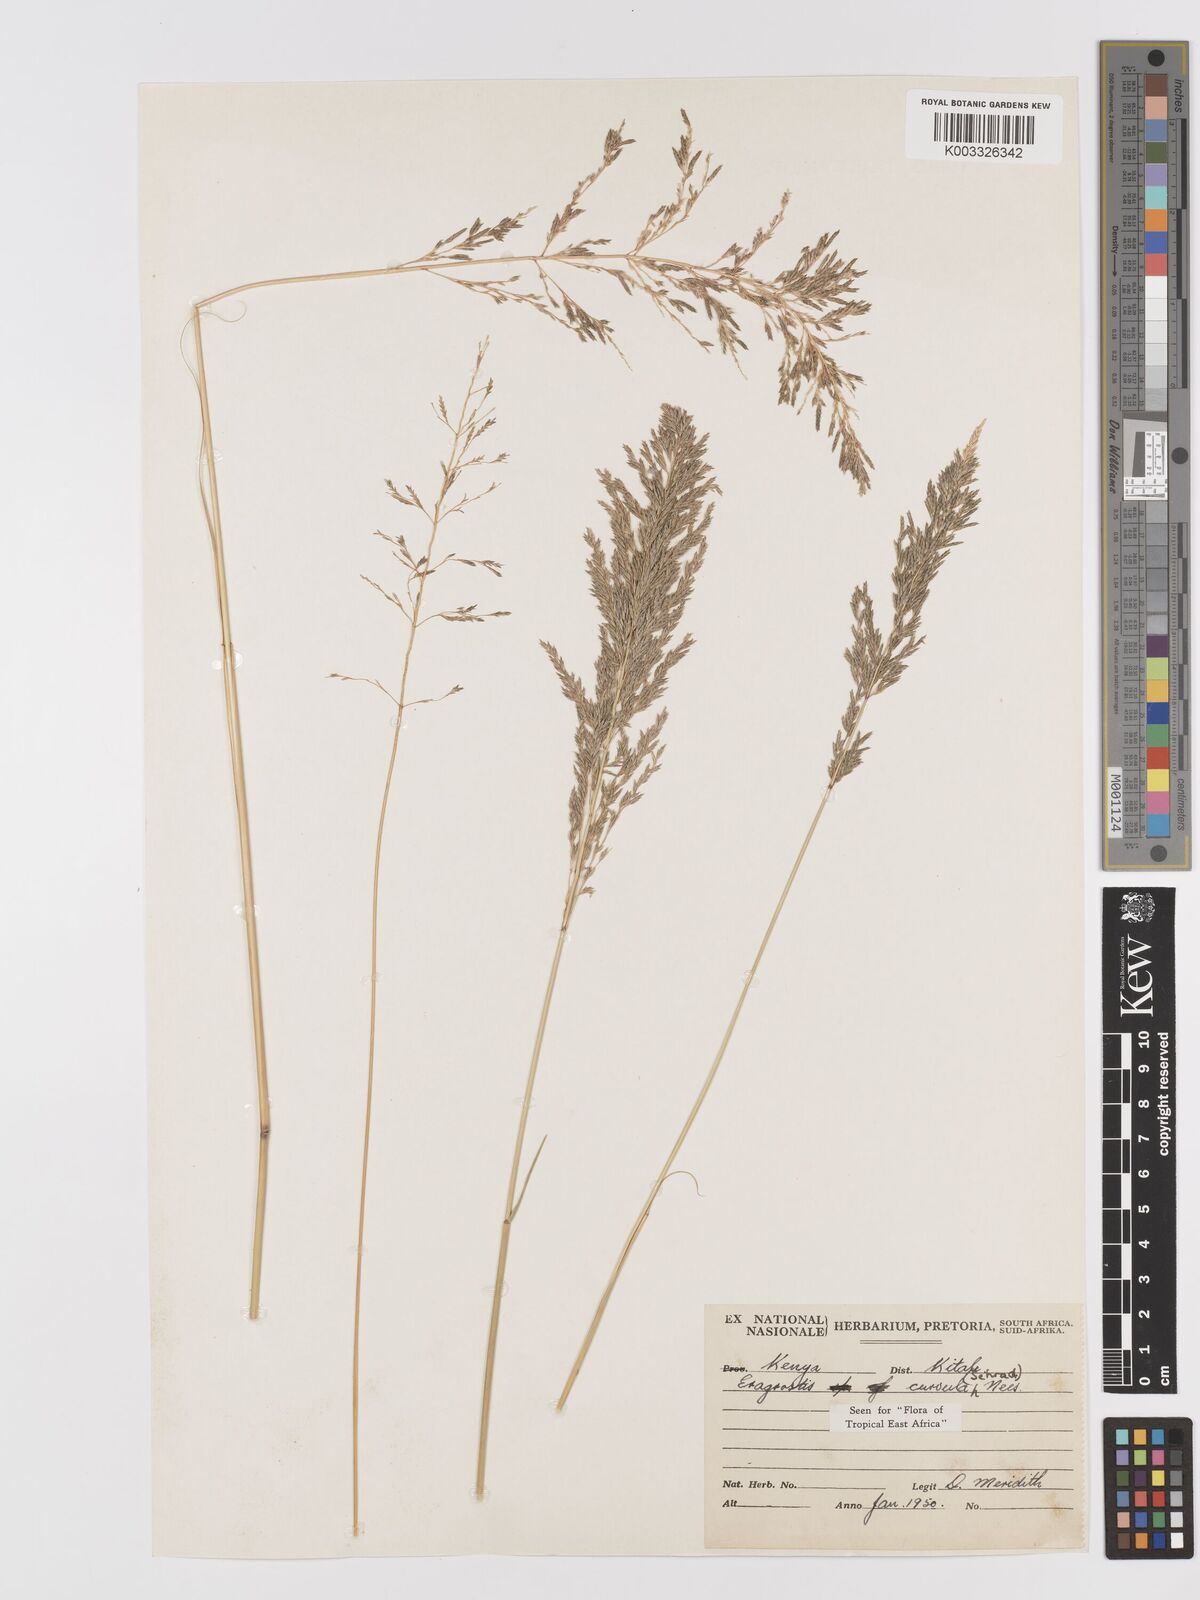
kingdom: Plantae
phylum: Tracheophyta
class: Liliopsida
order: Poales
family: Poaceae
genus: Eragrostis
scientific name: Eragrostis curvula
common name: African love-grass
